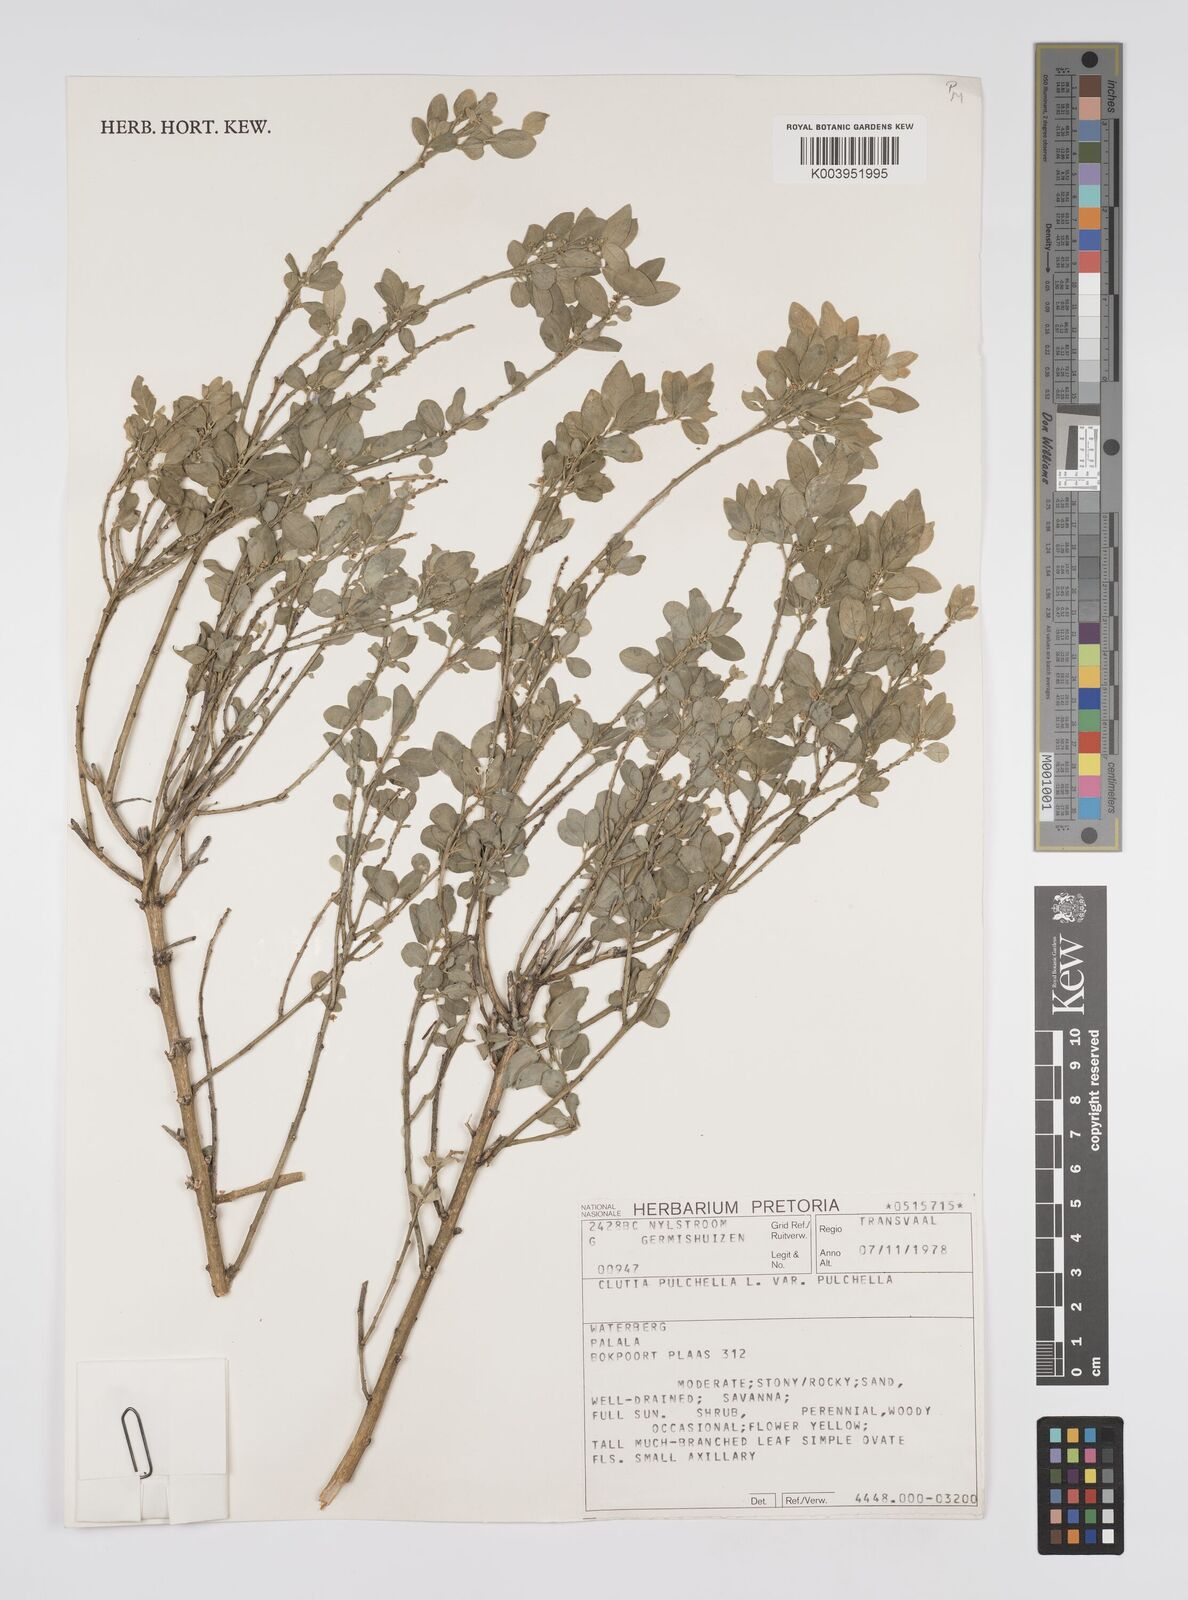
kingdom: Plantae
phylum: Tracheophyta
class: Magnoliopsida
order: Malpighiales
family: Peraceae
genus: Clutia
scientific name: Clutia pulchella
